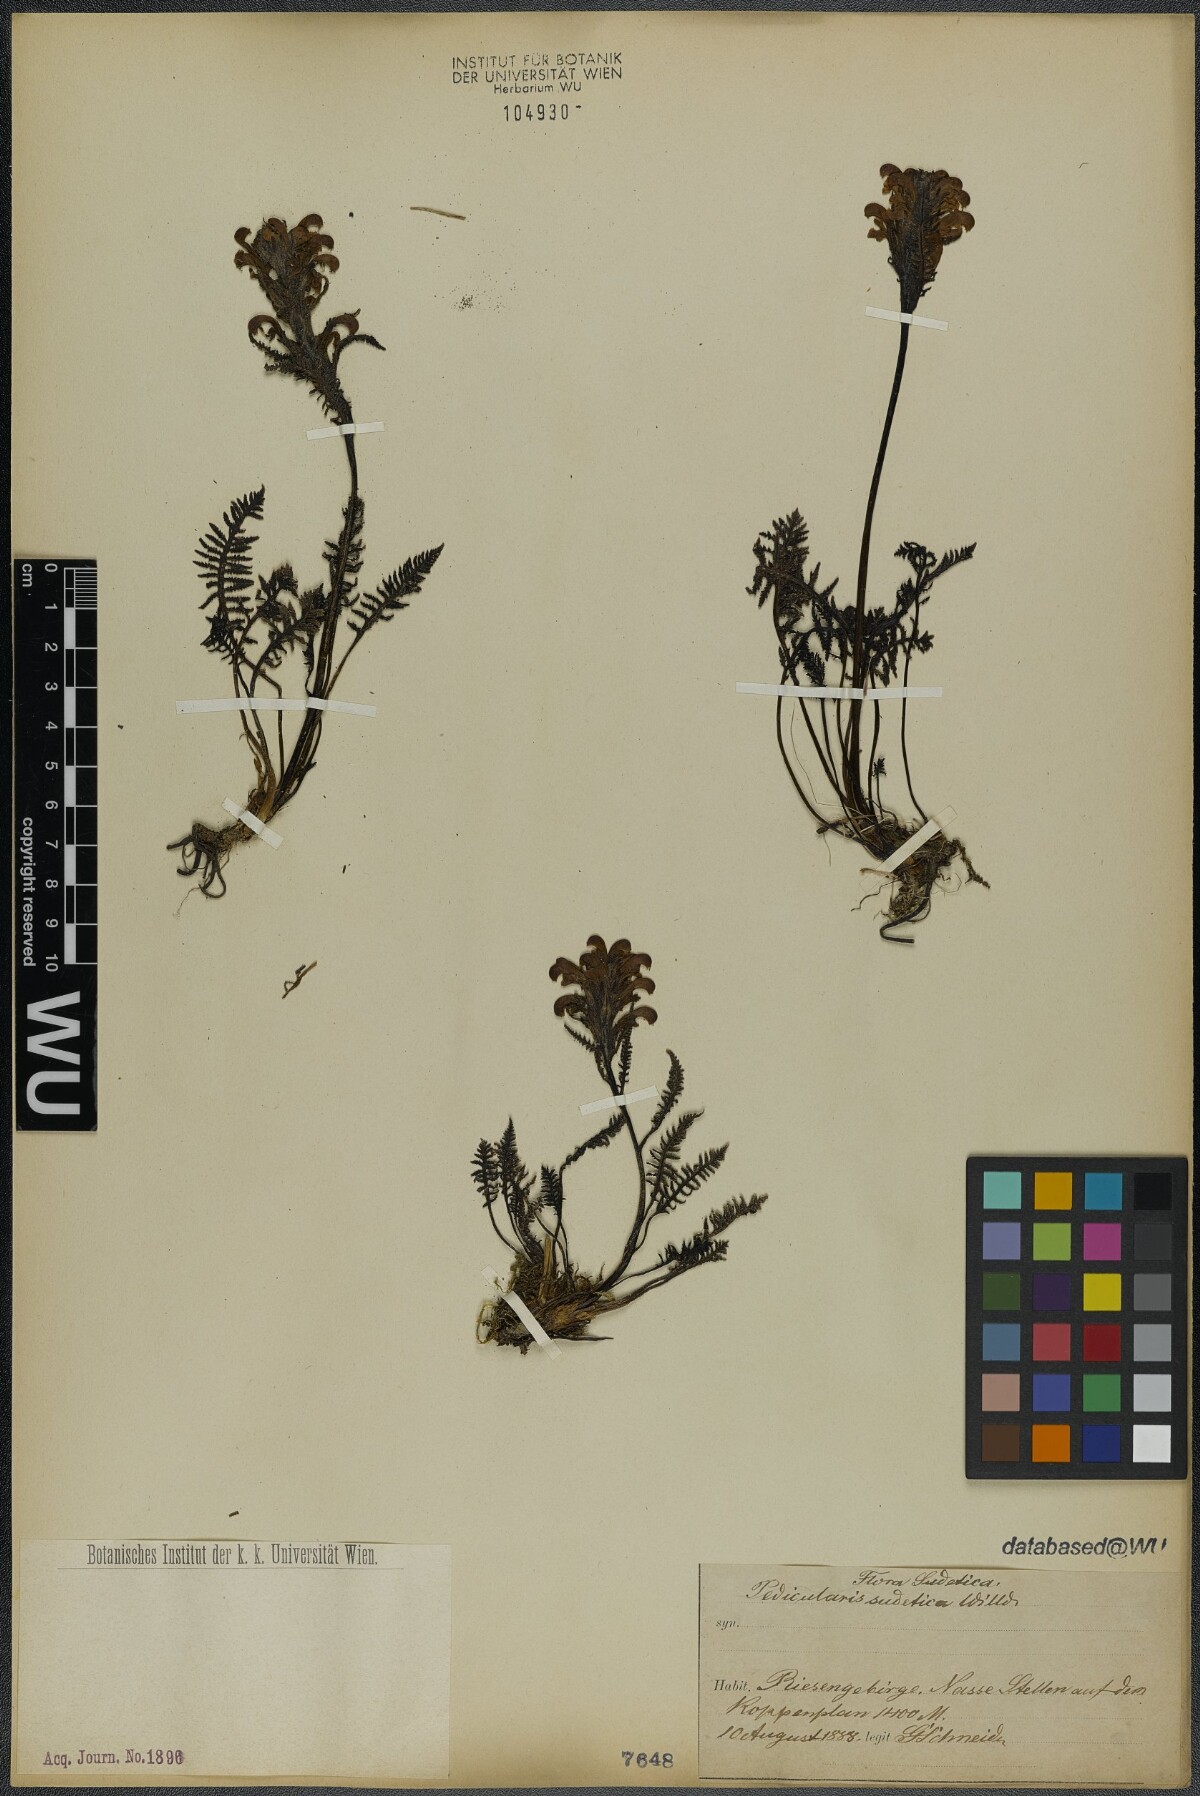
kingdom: Plantae
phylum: Tracheophyta
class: Magnoliopsida
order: Lamiales
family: Orobanchaceae
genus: Pedicularis
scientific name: Pedicularis sudetica
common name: Sudeten lousewort
